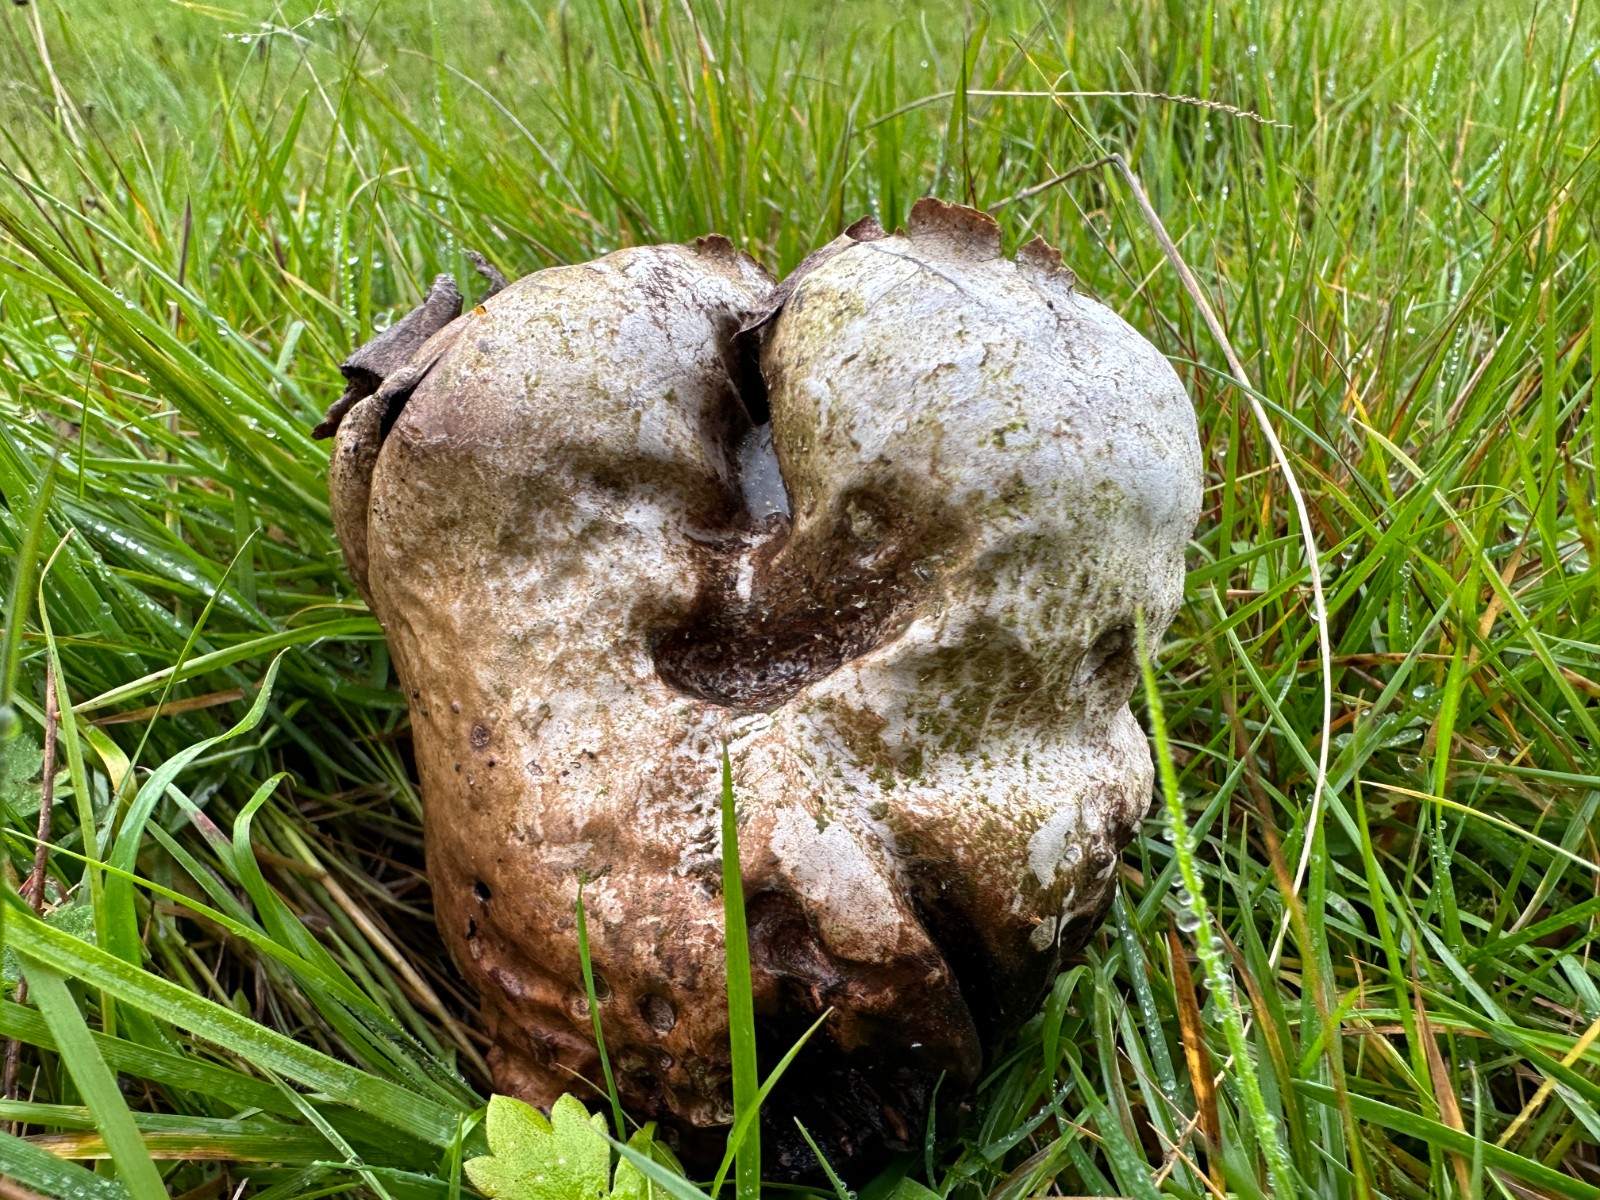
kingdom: Fungi
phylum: Basidiomycota
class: Agaricomycetes
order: Agaricales
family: Lycoperdaceae
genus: Bovistella
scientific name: Bovistella utriformis
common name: skællet støvbold
